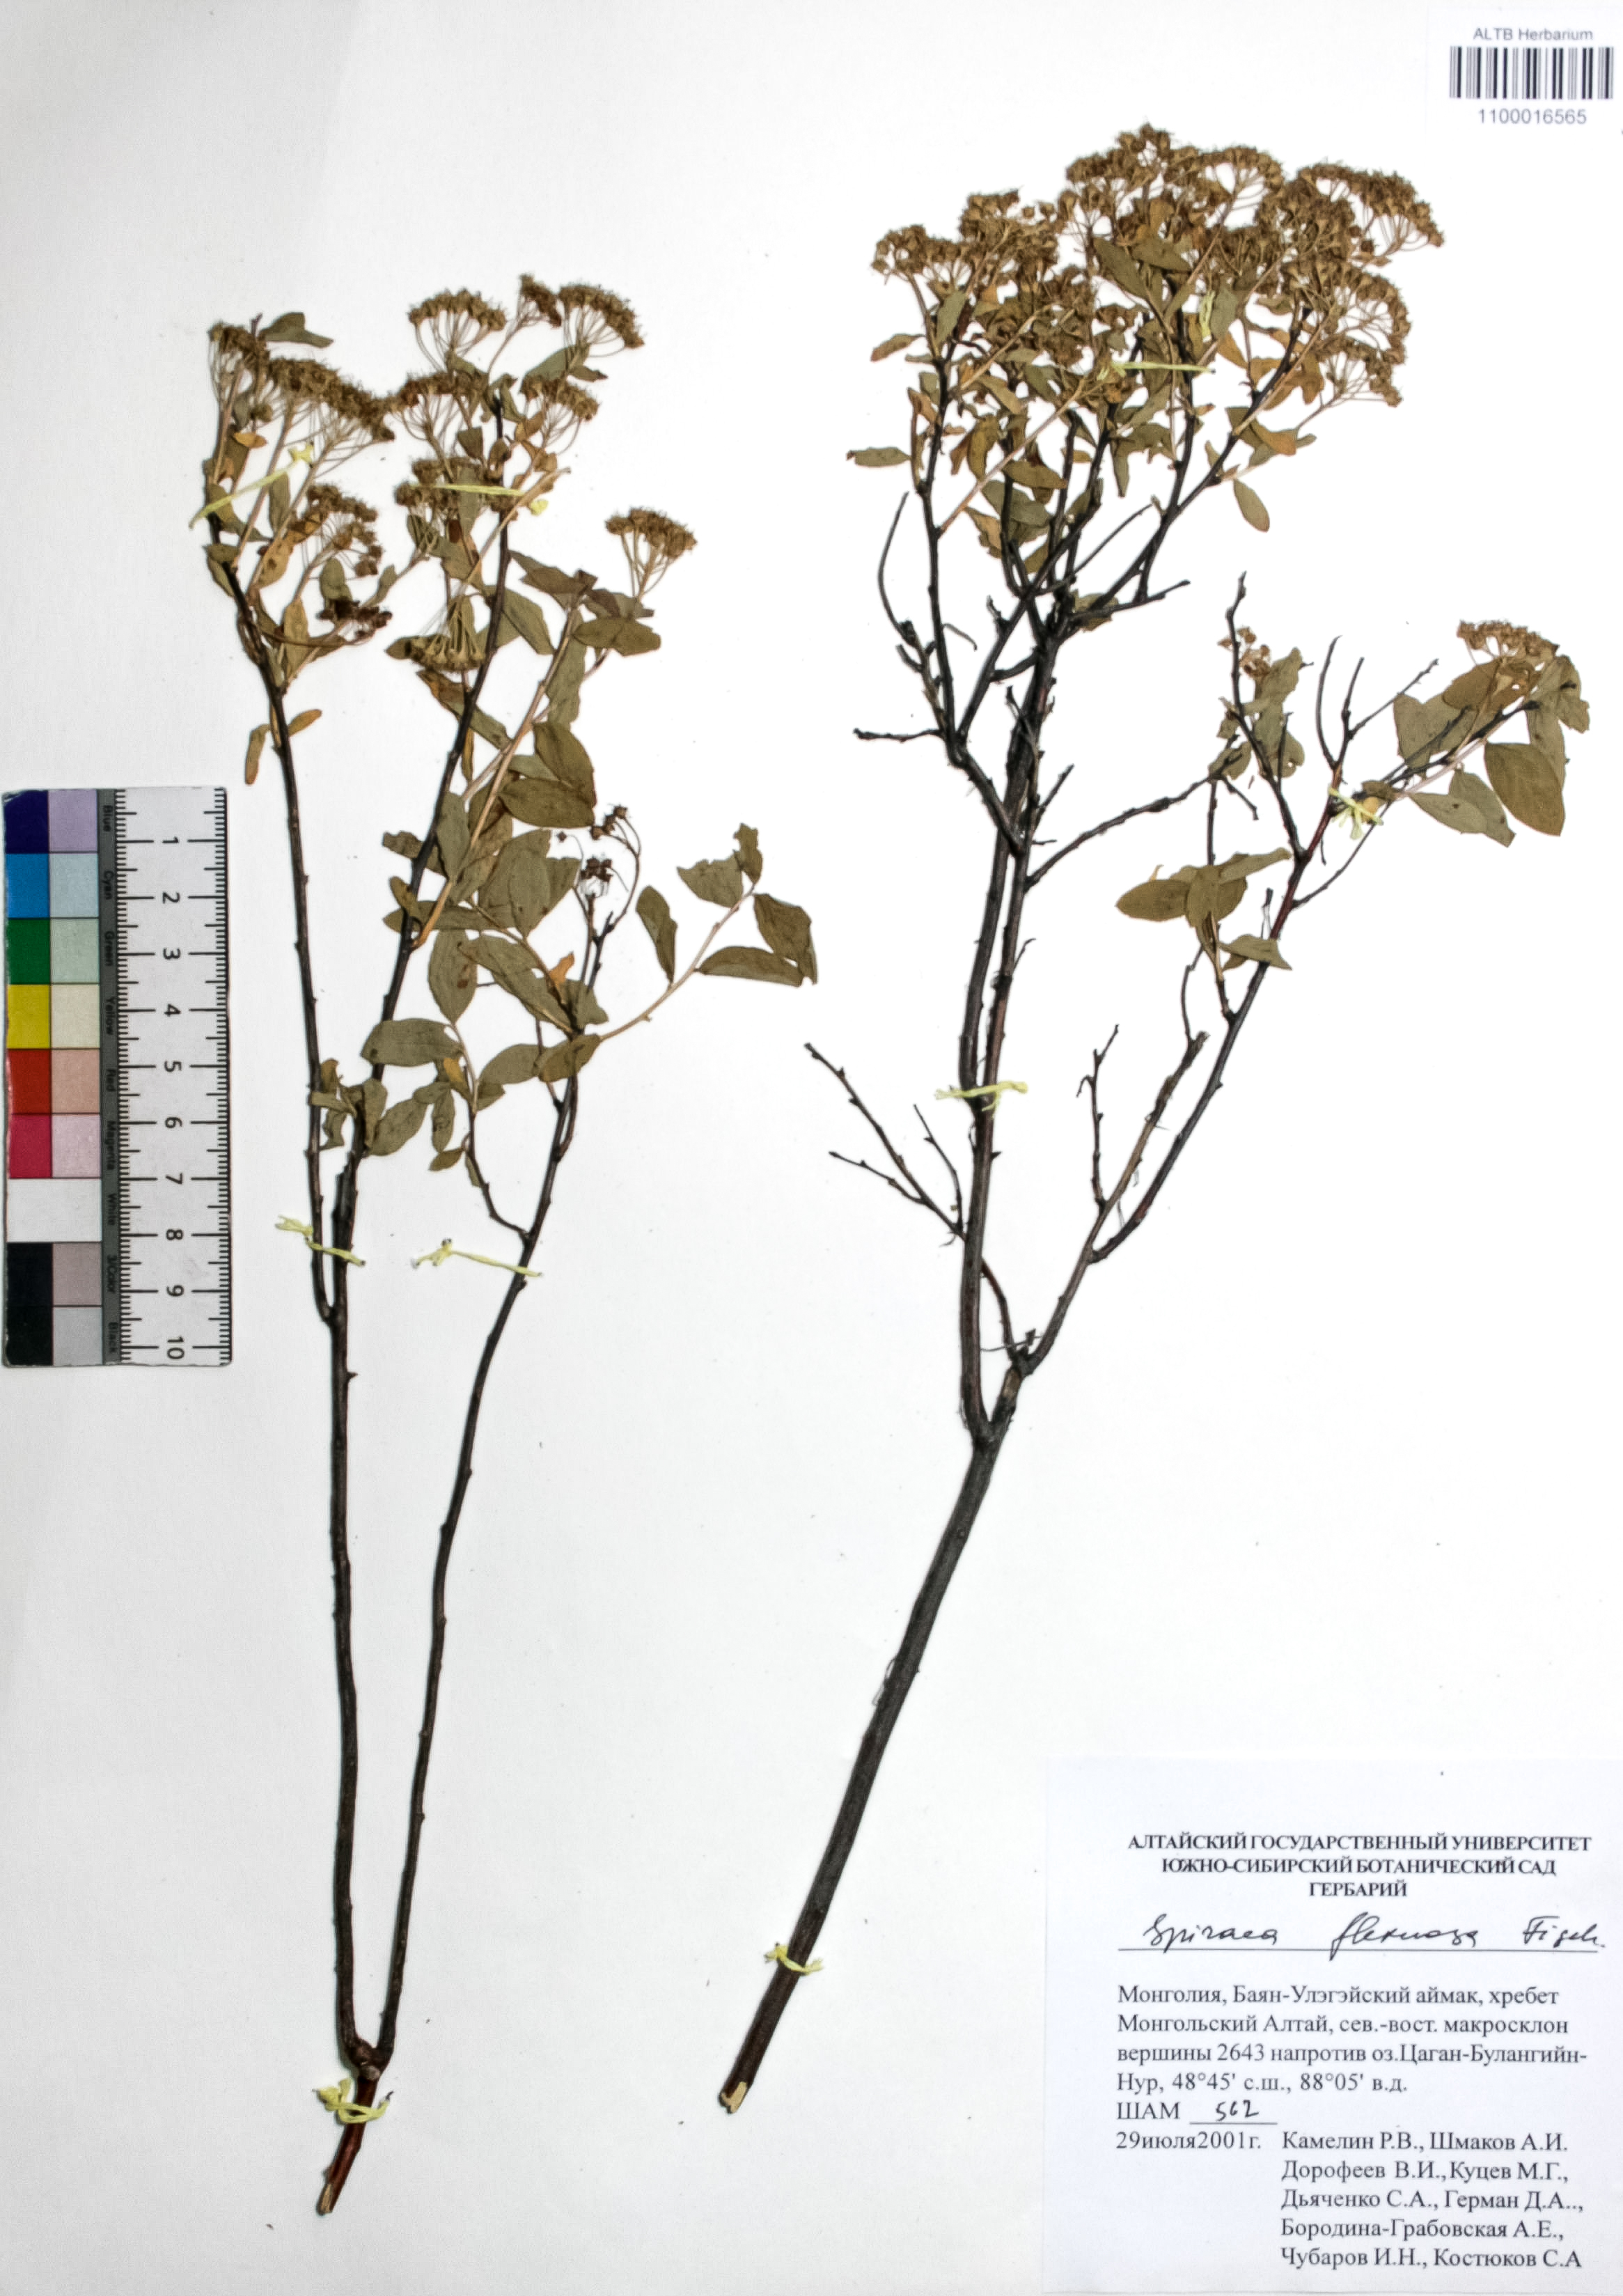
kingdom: Plantae
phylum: Tracheophyta
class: Magnoliopsida
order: Rosales
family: Rosaceae
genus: Spiraea
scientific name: Spiraea flexuosa
